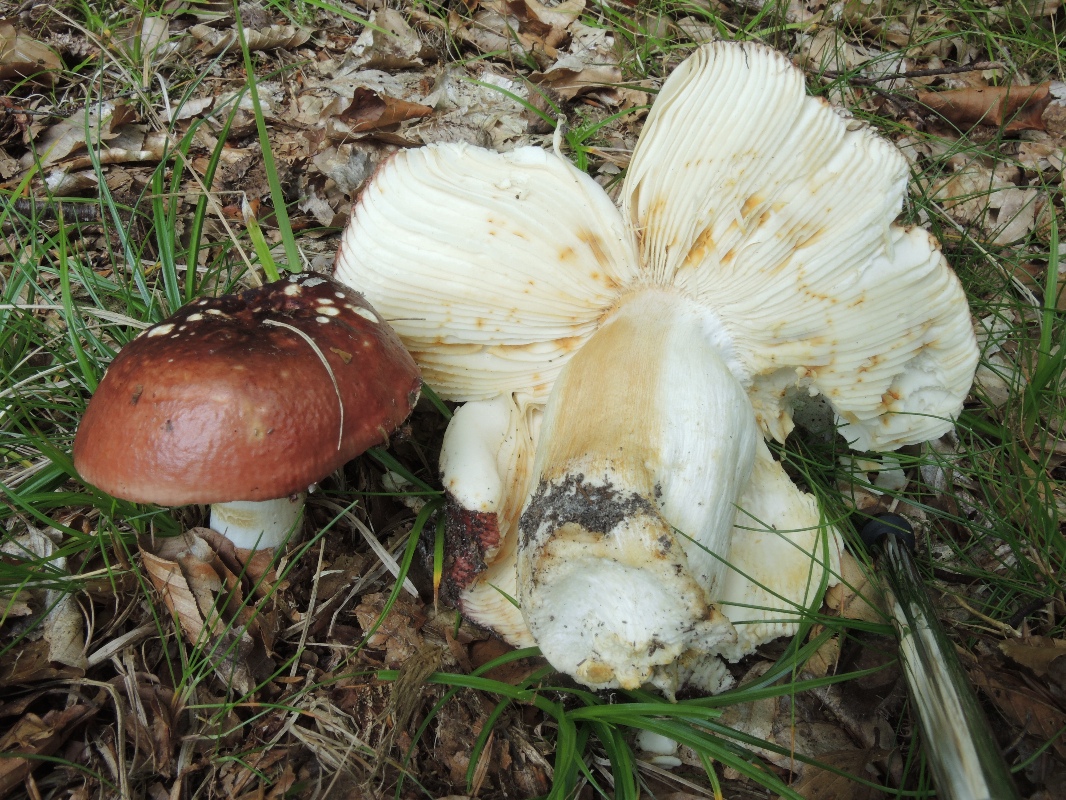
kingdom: Fungi
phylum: Basidiomycota
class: Agaricomycetes
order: Russulales
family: Russulaceae
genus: Russula
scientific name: Russula melliolens
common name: honning-skørhat
